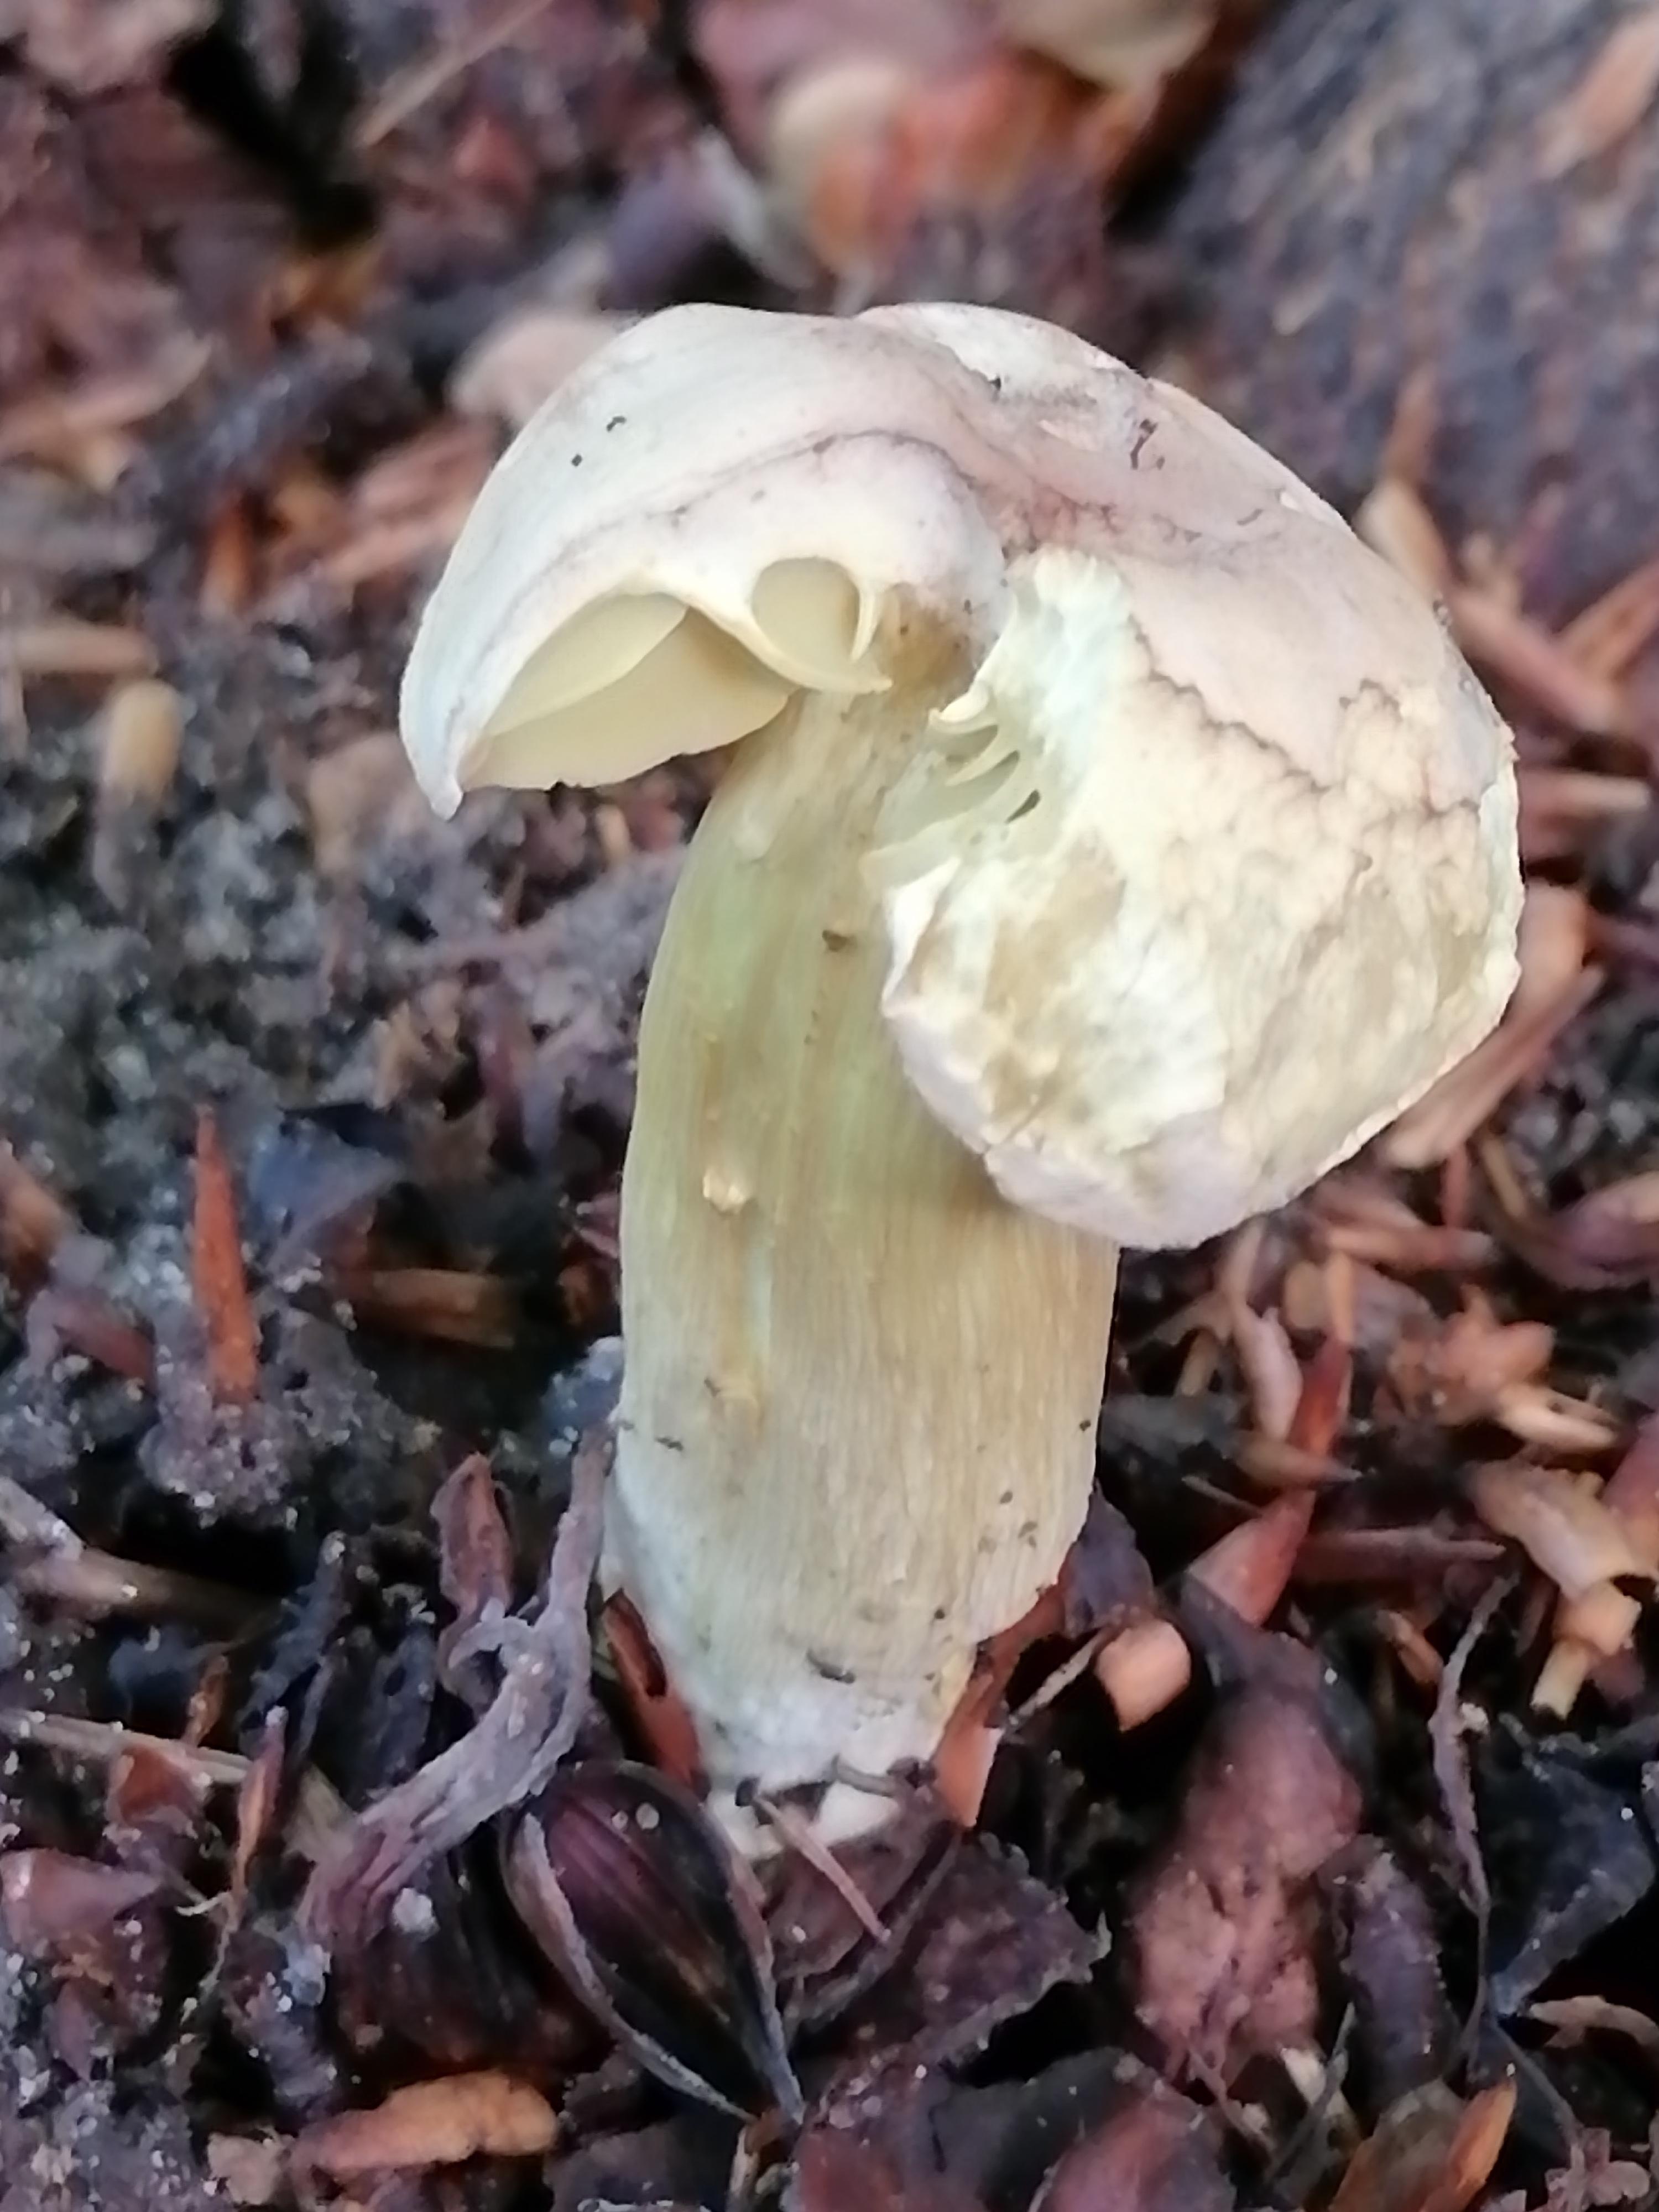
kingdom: Fungi
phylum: Basidiomycota
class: Agaricomycetes
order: Agaricales
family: Tricholomataceae
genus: Tricholoma
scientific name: Tricholoma sulphureum
